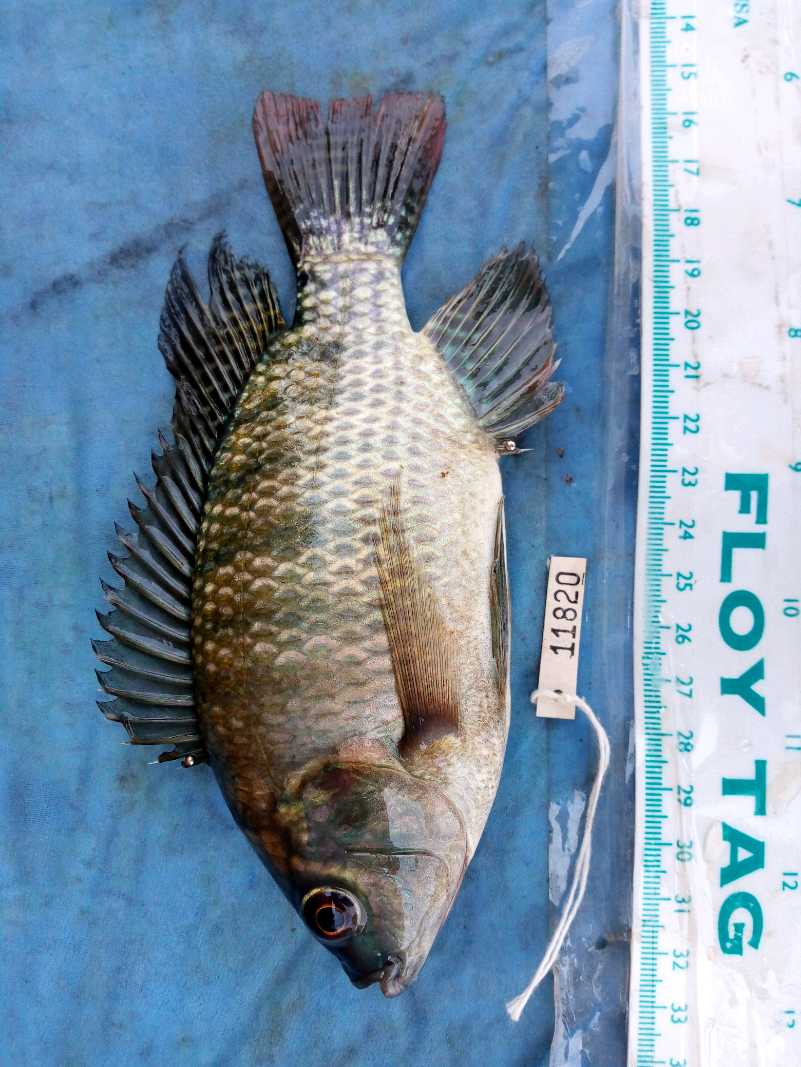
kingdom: Animalia
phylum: Chordata
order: Perciformes
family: Cichlidae
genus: Oreochromis
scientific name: Oreochromis niloticus
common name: Nile tilapia
